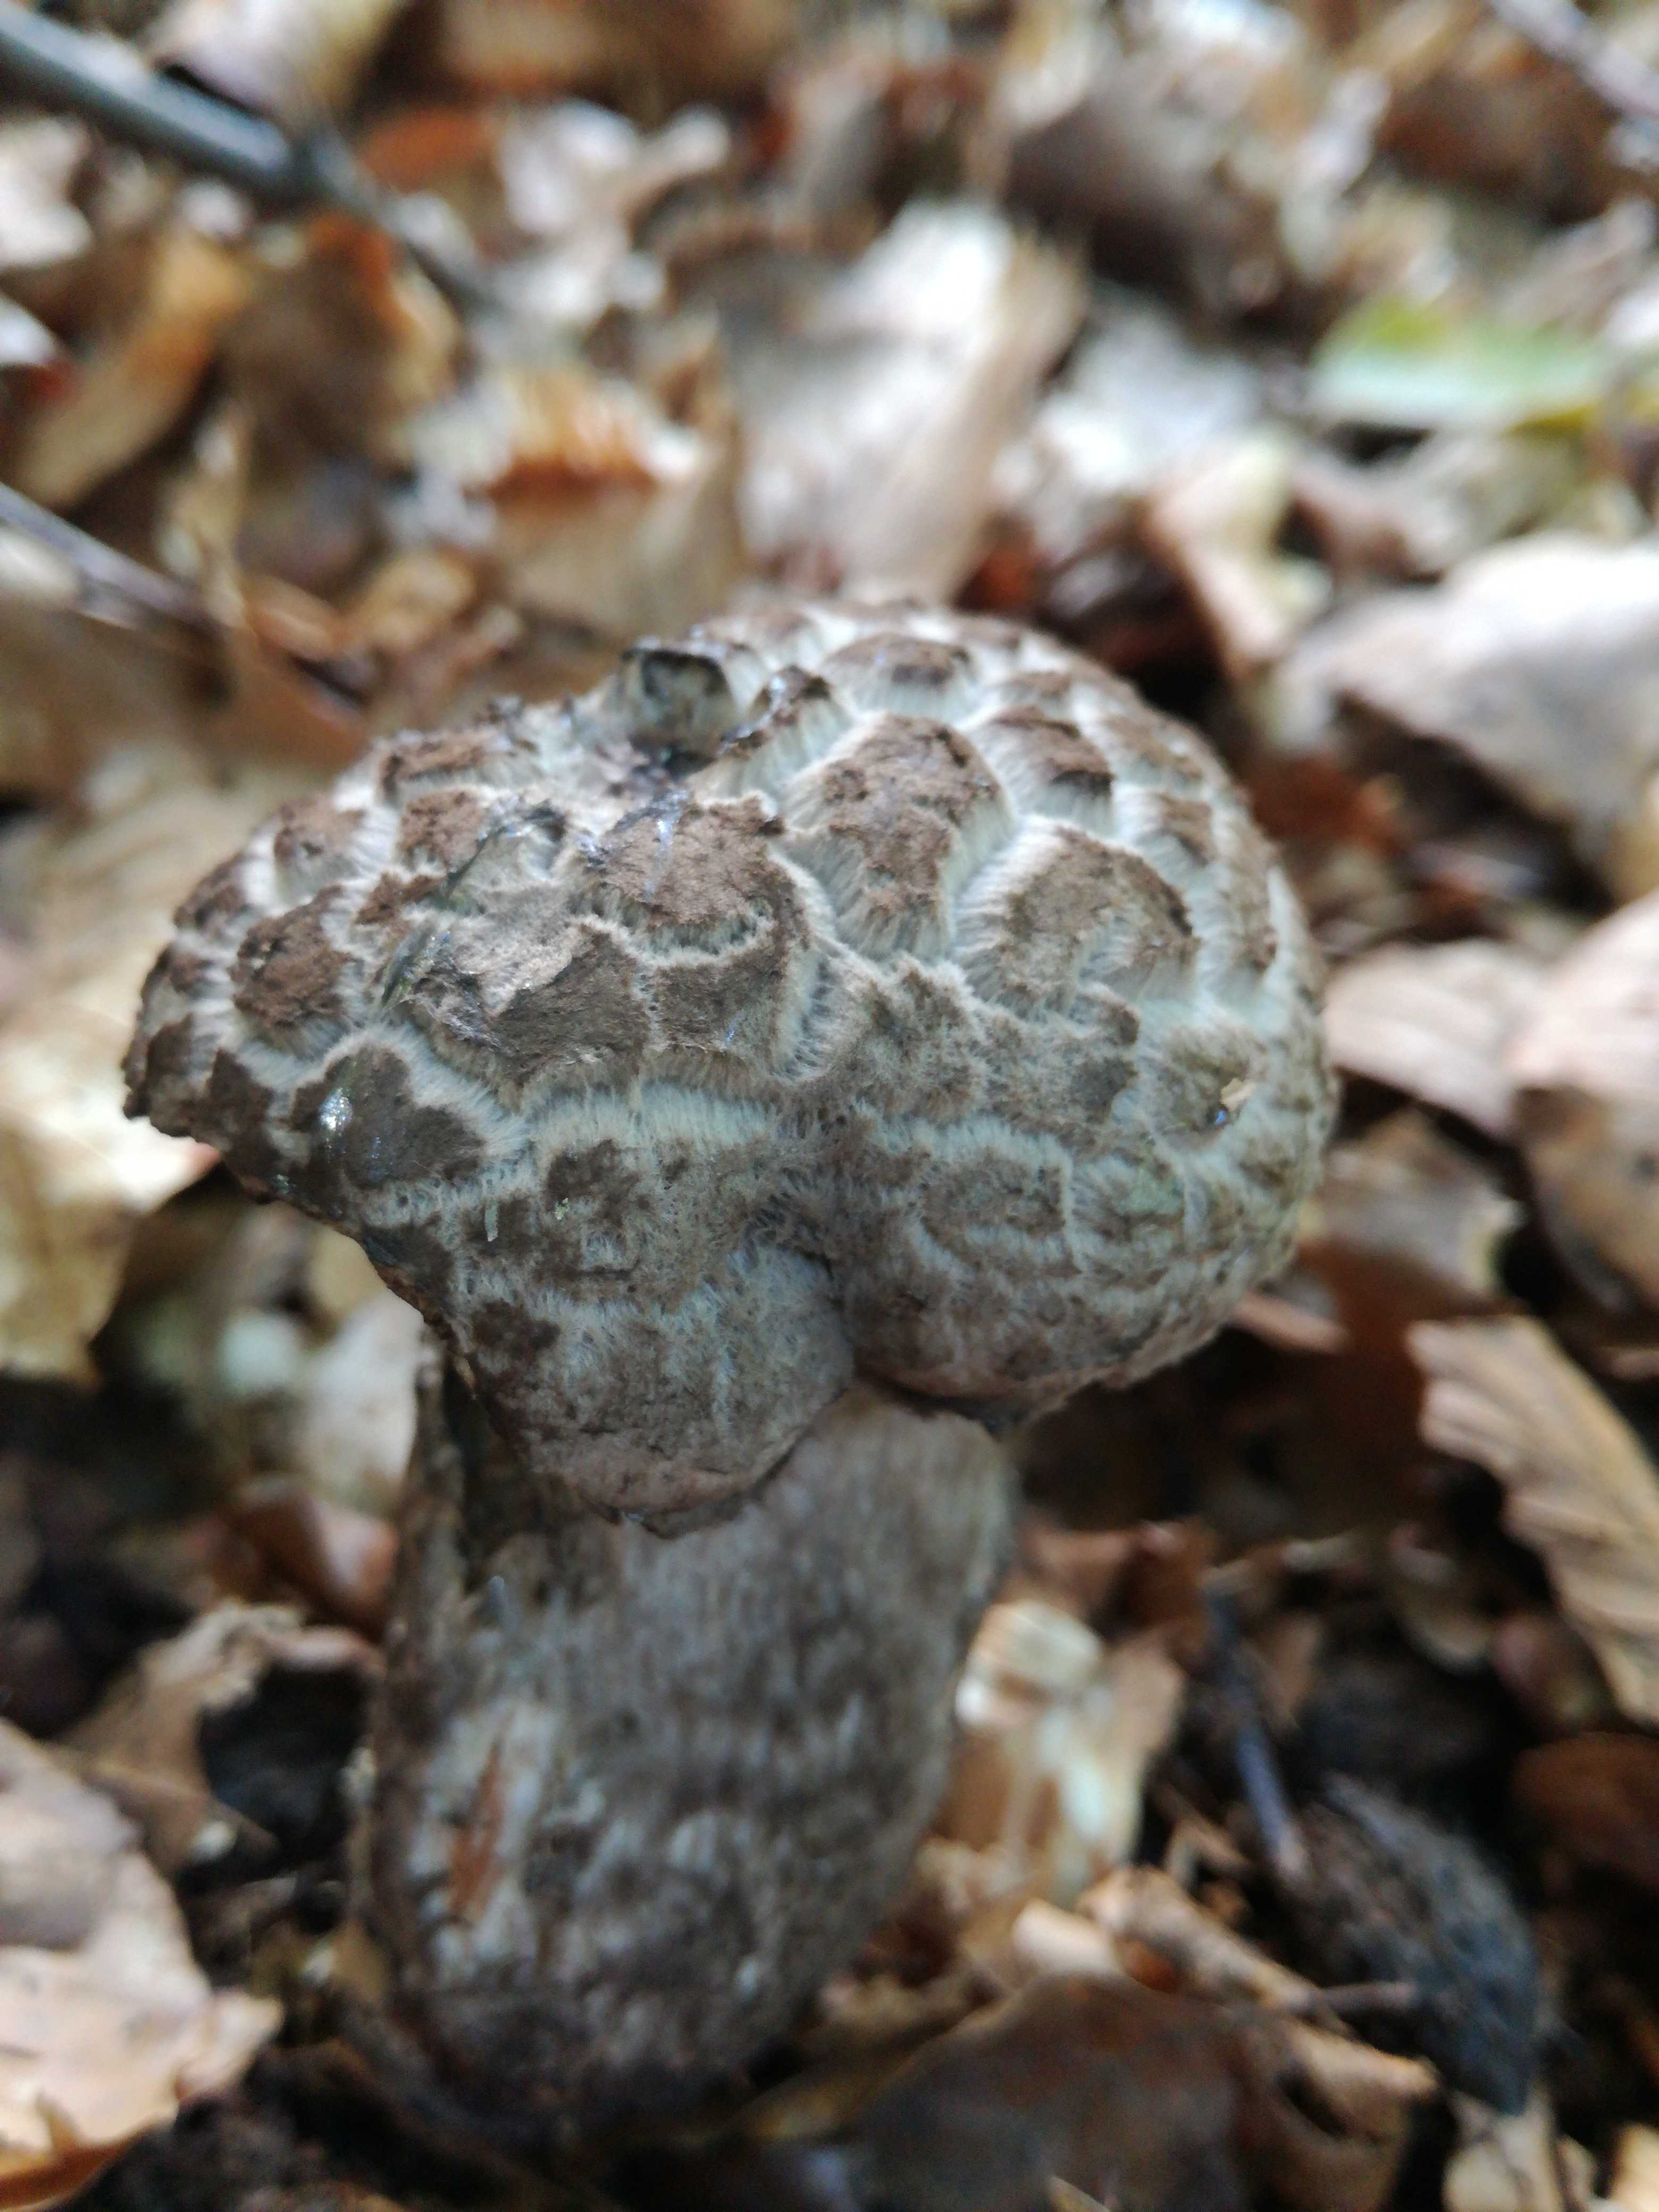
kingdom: Fungi
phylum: Basidiomycota
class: Agaricomycetes
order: Boletales
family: Boletaceae
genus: Strobilomyces
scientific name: Strobilomyces strobilaceus
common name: koglerørhat
